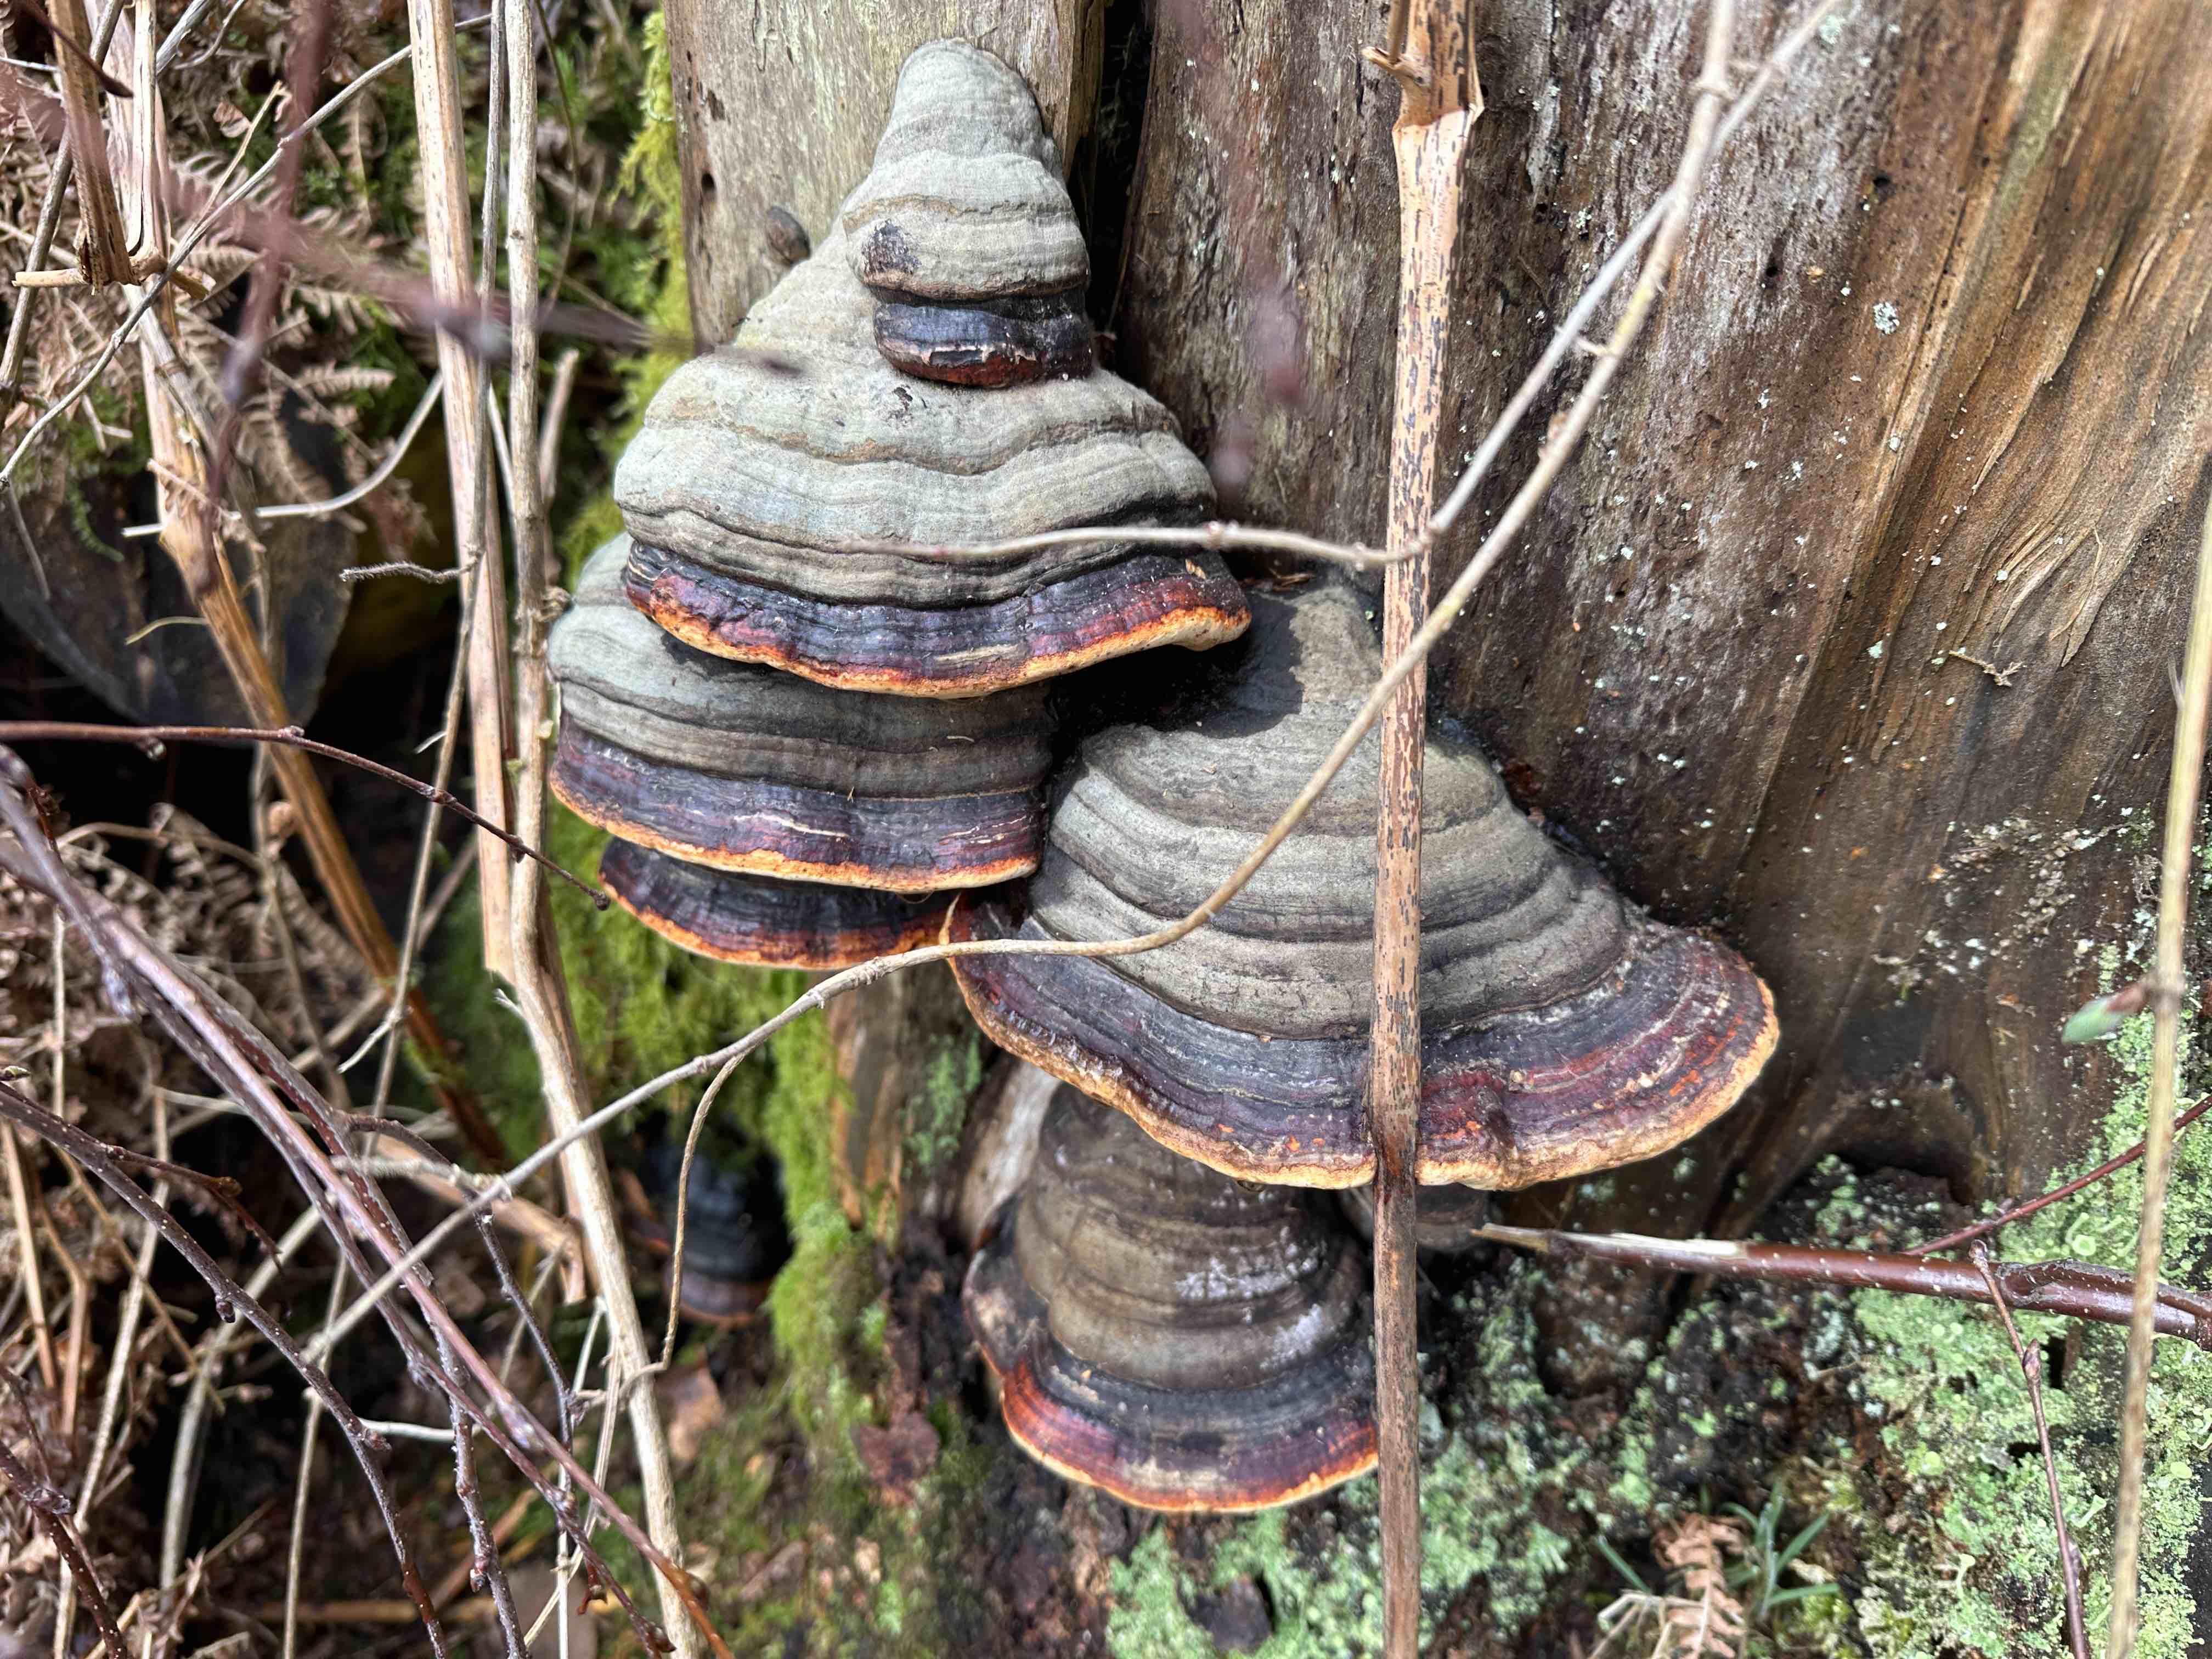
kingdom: Fungi
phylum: Basidiomycota
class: Agaricomycetes
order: Polyporales
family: Fomitopsidaceae
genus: Fomitopsis
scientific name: Fomitopsis pinicola
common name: randbæltet hovporesvamp
